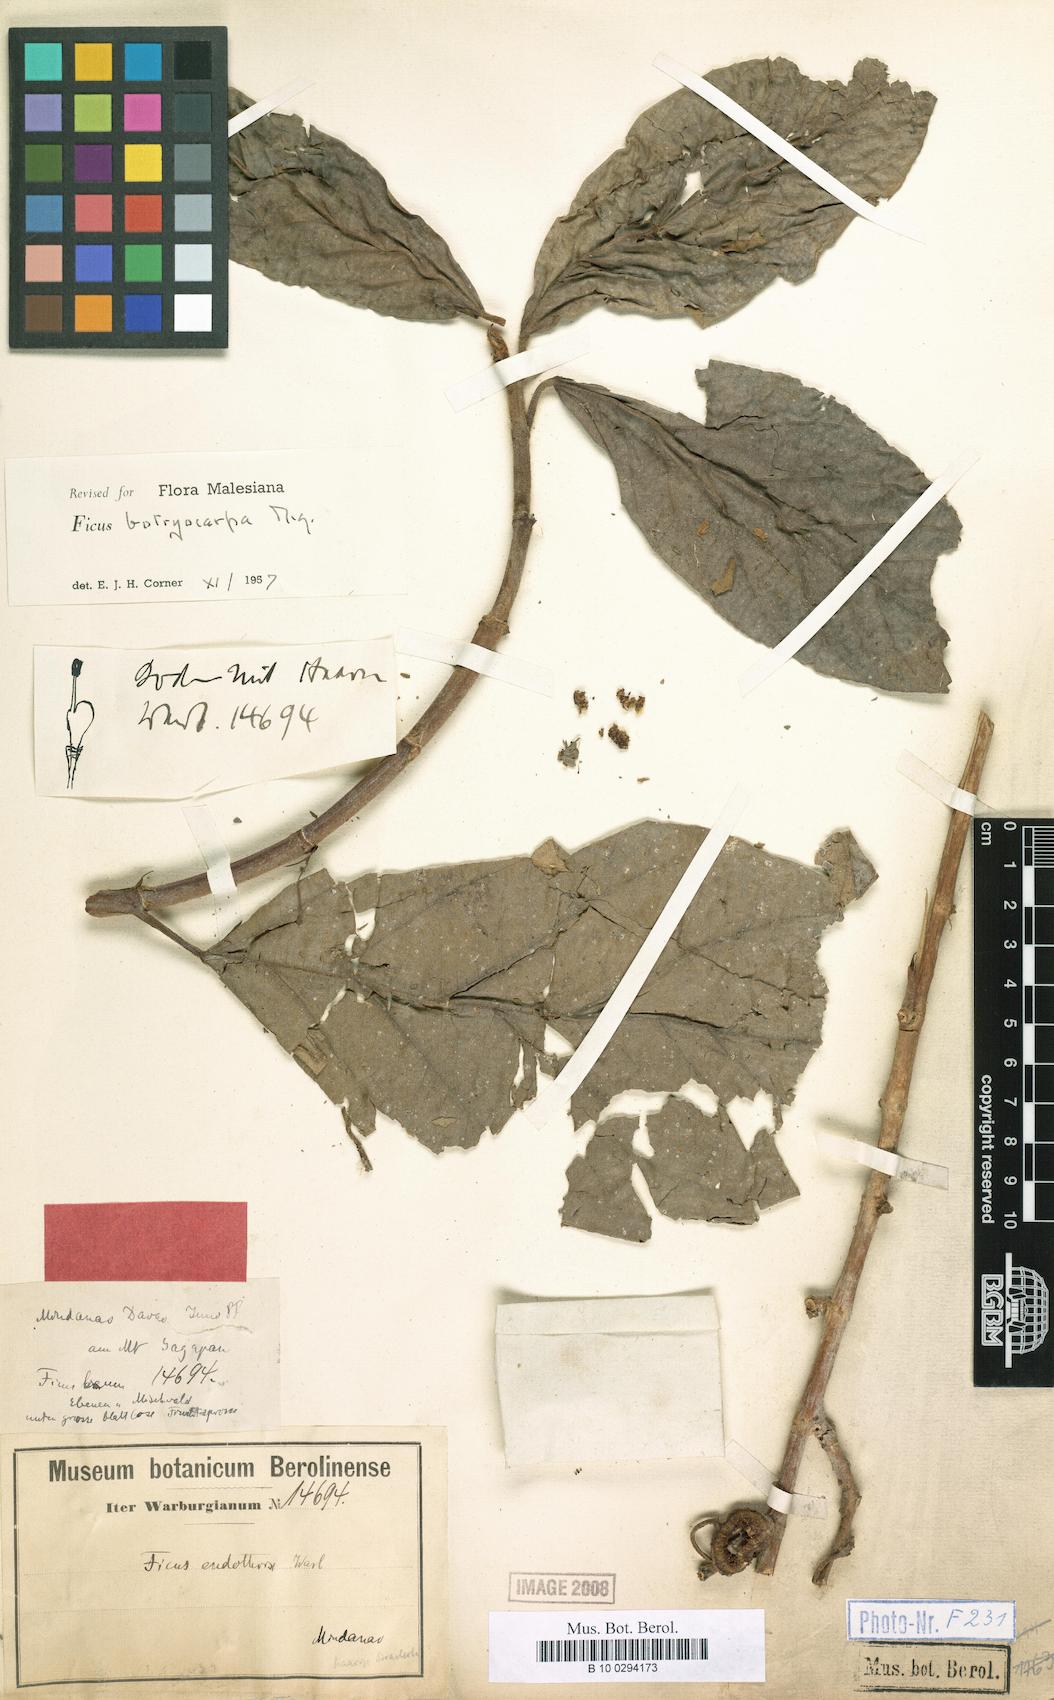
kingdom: Plantae
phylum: Tracheophyta
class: Magnoliopsida
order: Rosales
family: Moraceae
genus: Ficus
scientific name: Ficus botryocarpa
